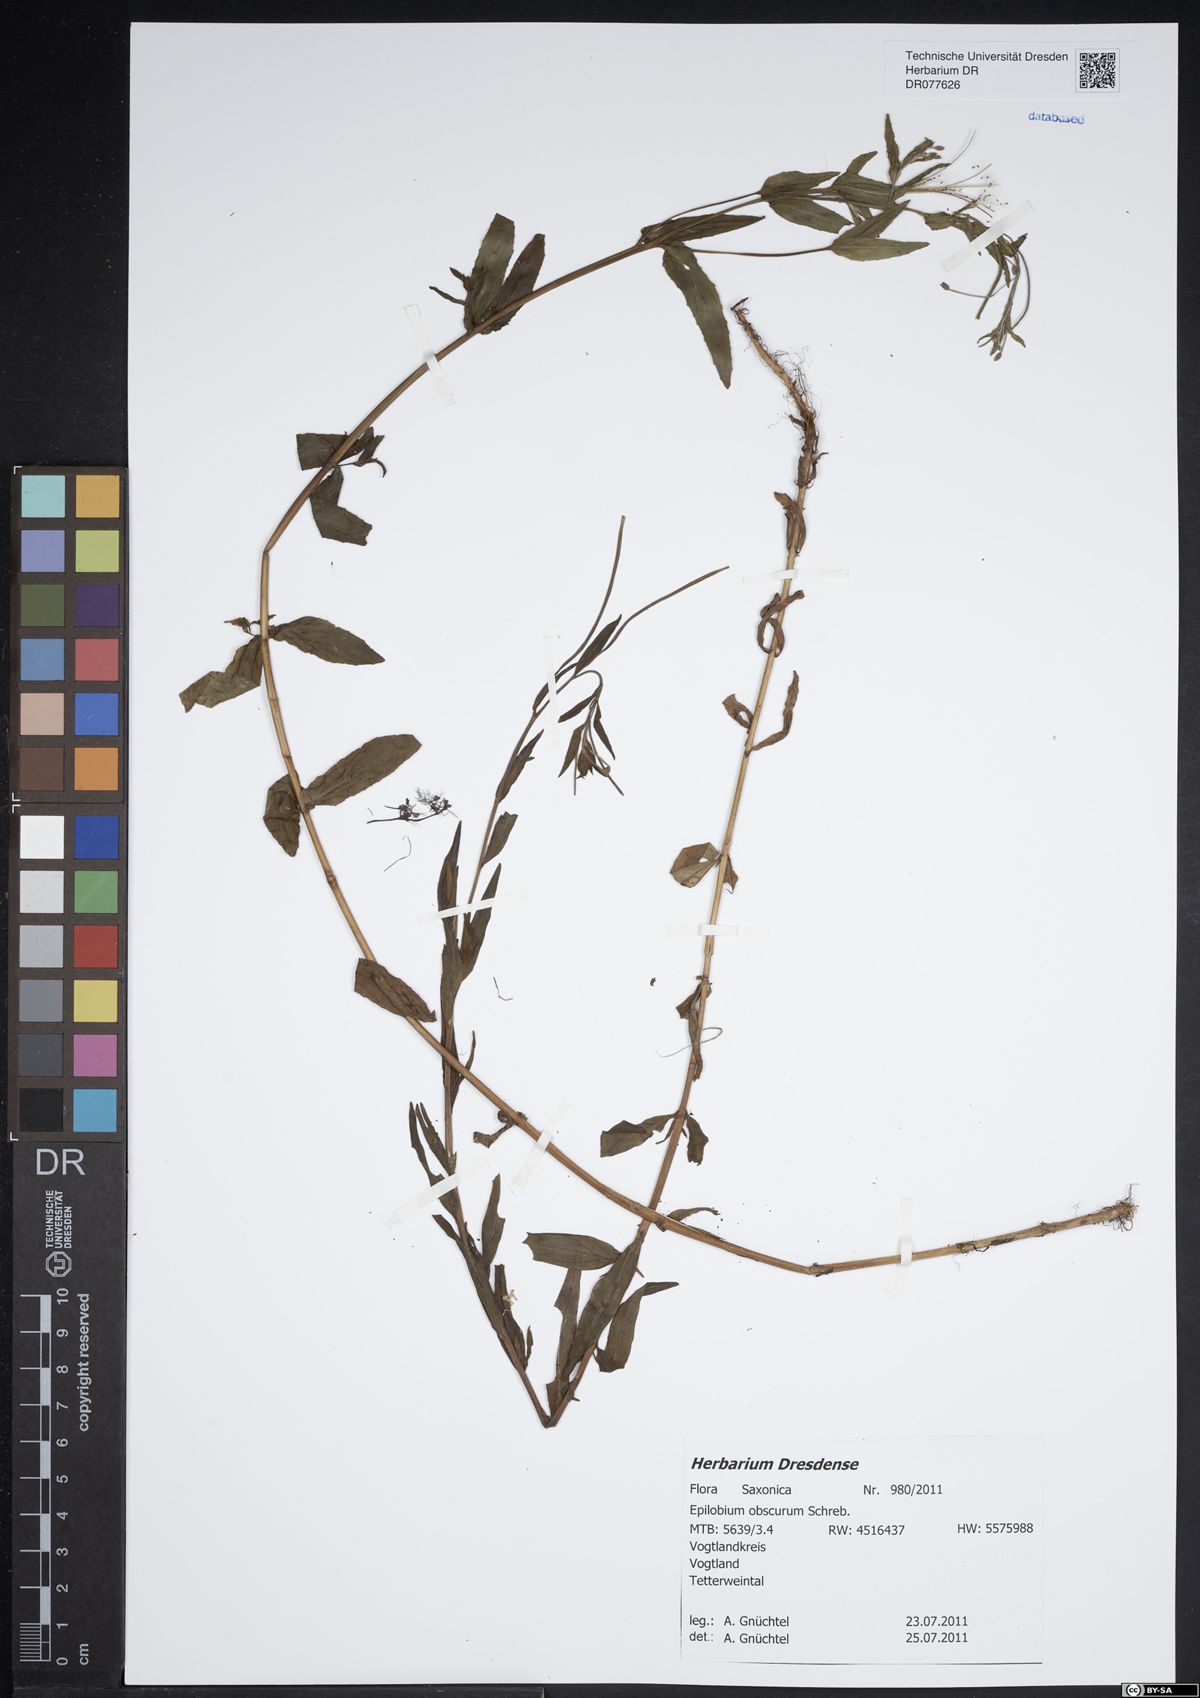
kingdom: Plantae
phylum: Tracheophyta
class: Magnoliopsida
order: Myrtales
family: Onagraceae
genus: Epilobium
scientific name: Epilobium obscurum
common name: Short-fruited willowherb
